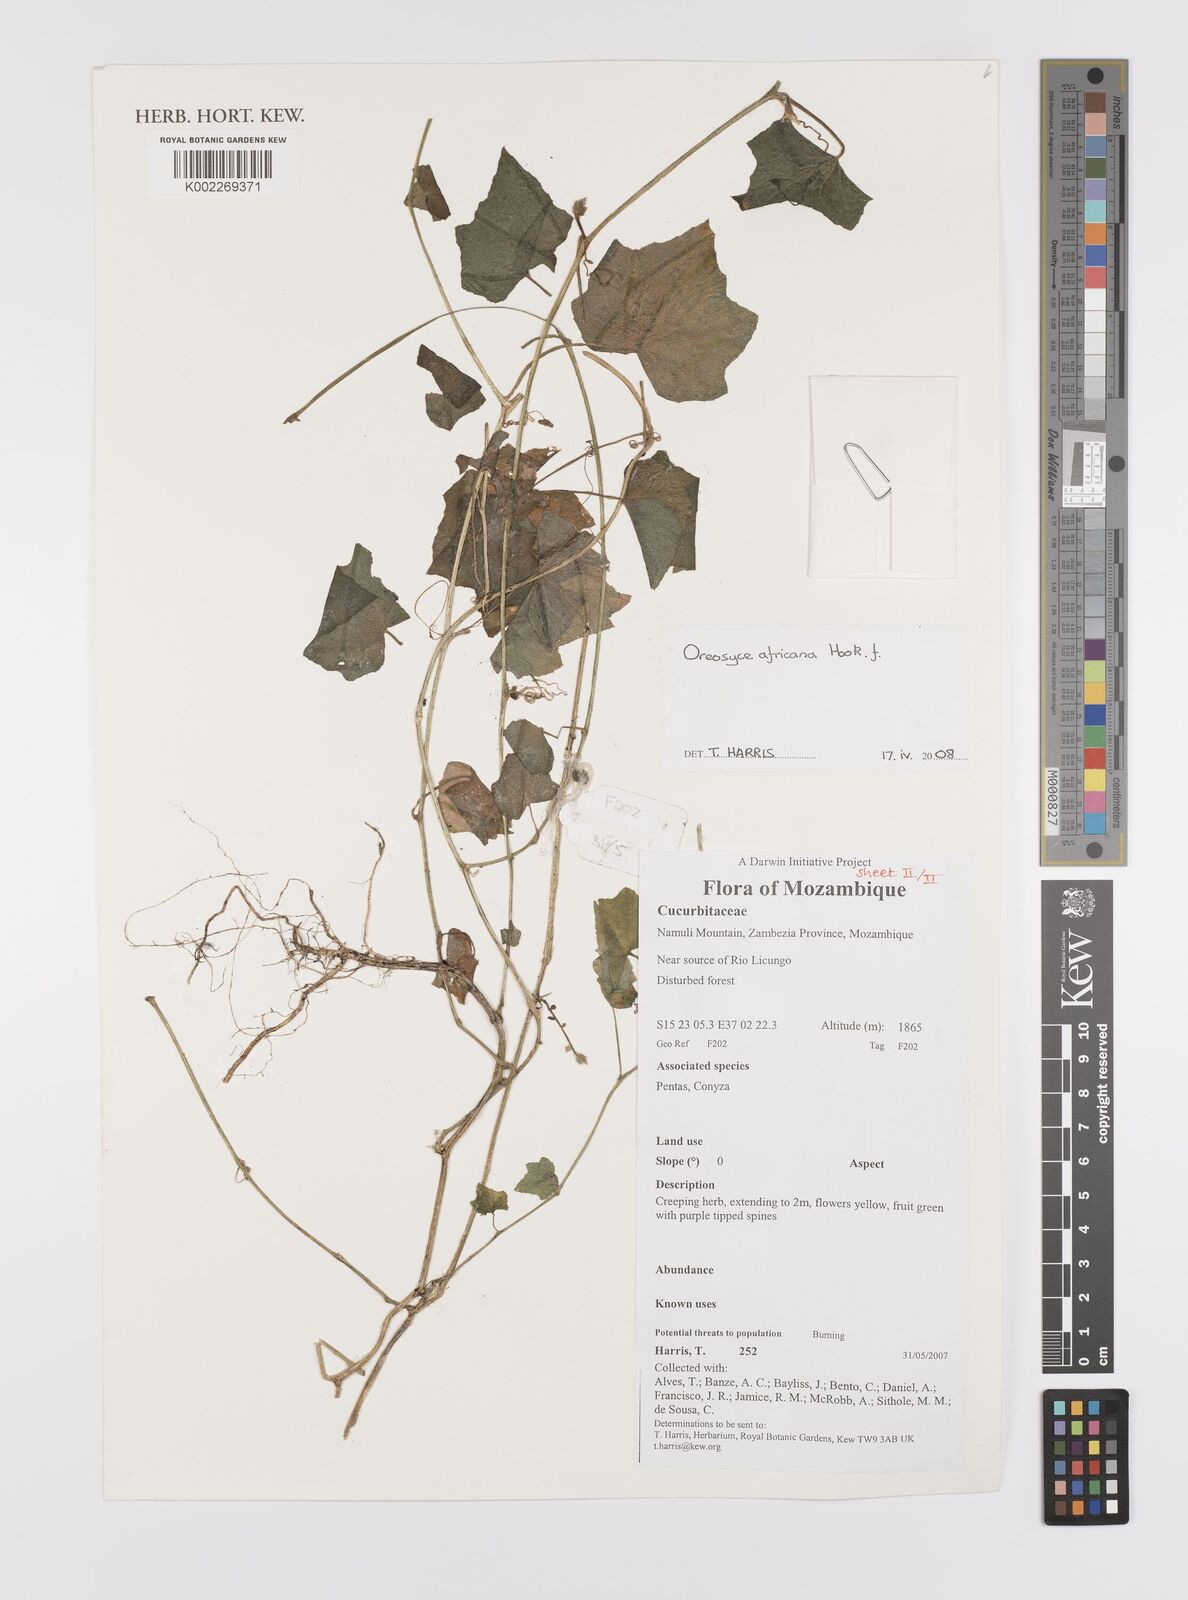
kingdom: Plantae
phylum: Tracheophyta
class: Magnoliopsida
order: Cucurbitales
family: Cucurbitaceae
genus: Cucumis
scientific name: Cucumis oreosyce
